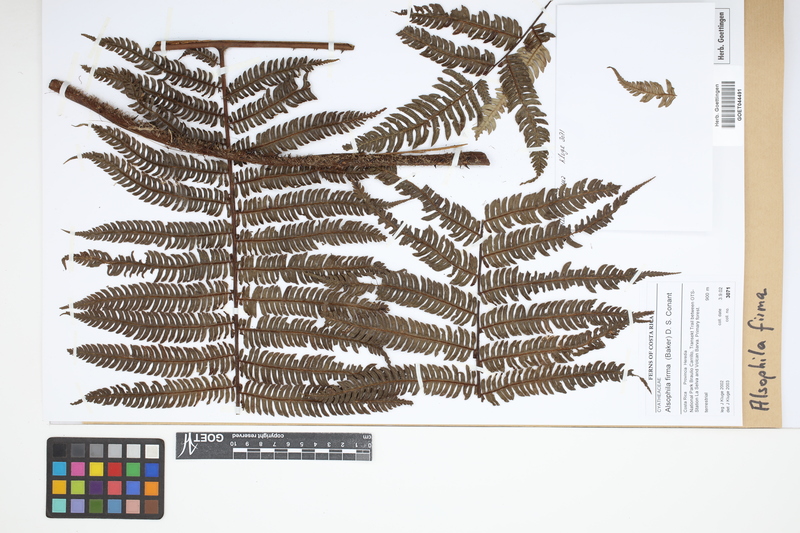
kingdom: Plantae
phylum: Tracheophyta
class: Polypodiopsida
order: Cyatheales
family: Cyatheaceae
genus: Alsophila
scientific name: Alsophila firma
